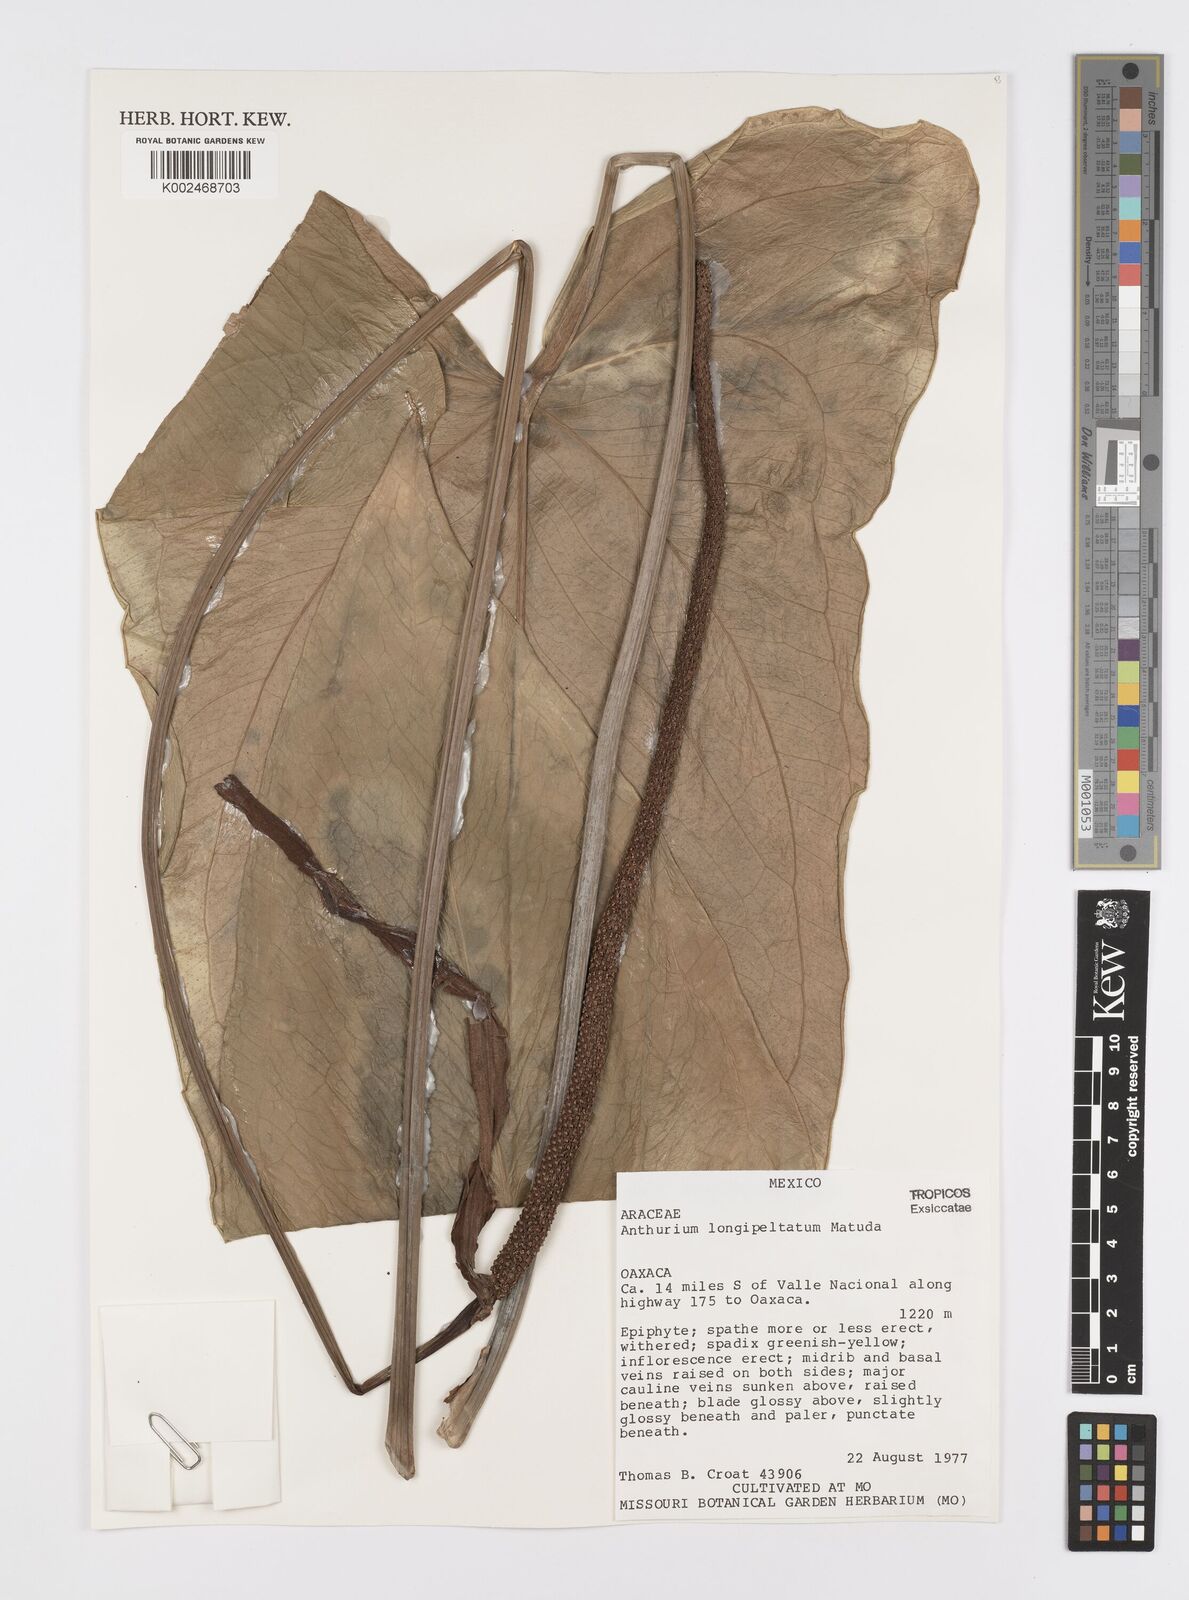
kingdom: Plantae
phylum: Tracheophyta
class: Liliopsida
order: Alismatales
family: Araceae
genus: Anthurium
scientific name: Anthurium longipeltatum
